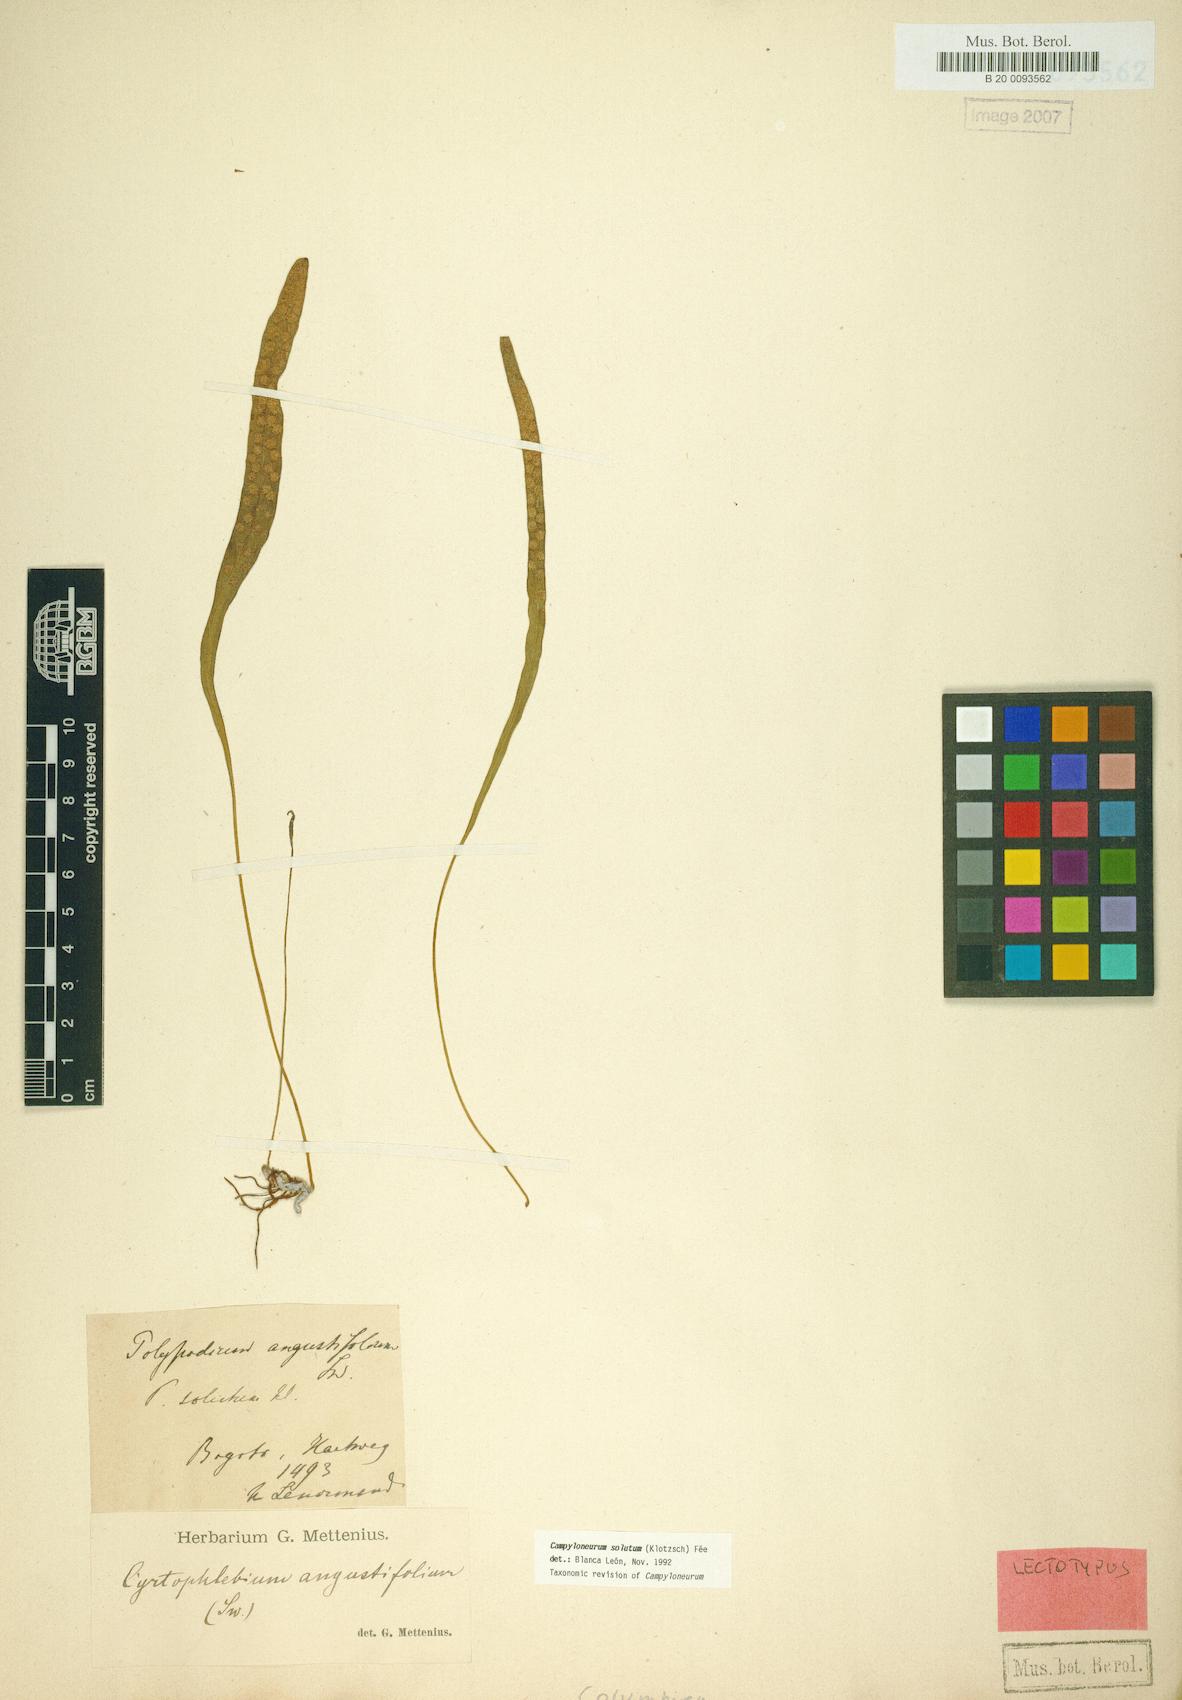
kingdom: Plantae
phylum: Tracheophyta
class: Polypodiopsida
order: Polypodiales
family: Polypodiaceae
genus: Campyloneurum
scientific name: Campyloneurum solutum
